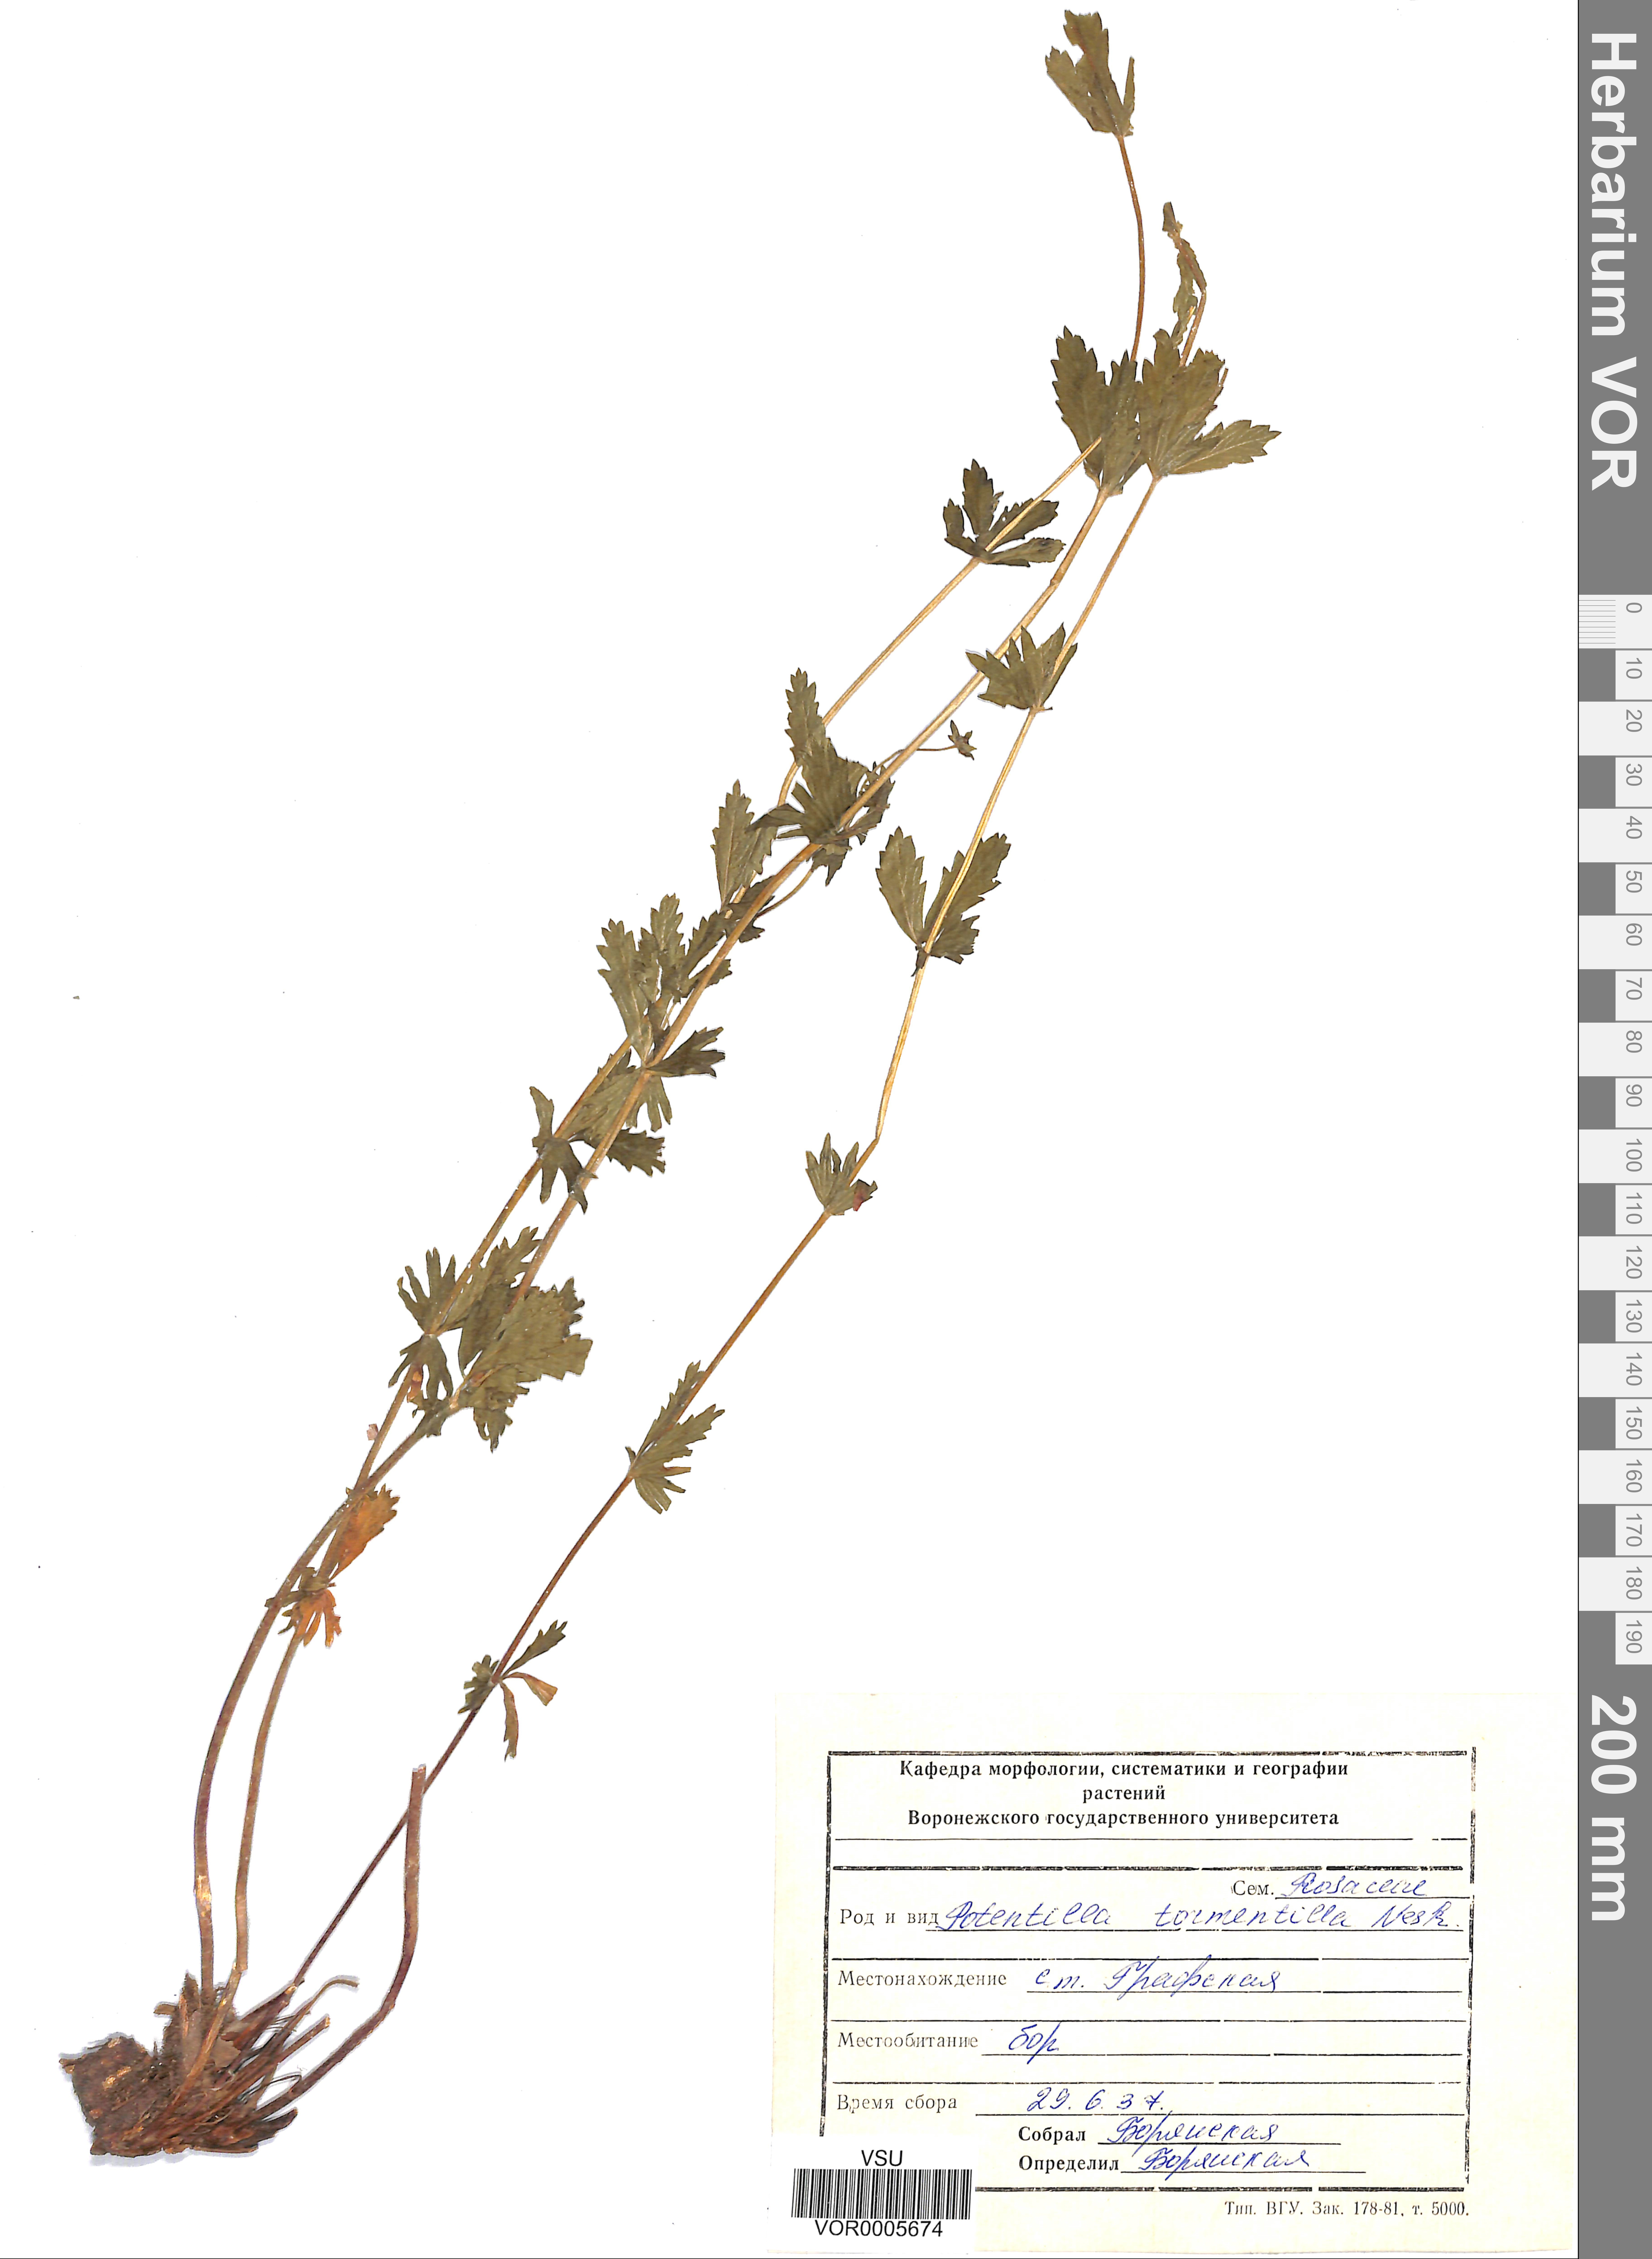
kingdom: Plantae
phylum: Tracheophyta
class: Magnoliopsida
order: Rosales
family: Rosaceae
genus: Potentilla
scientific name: Potentilla erecta
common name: Tormentil
